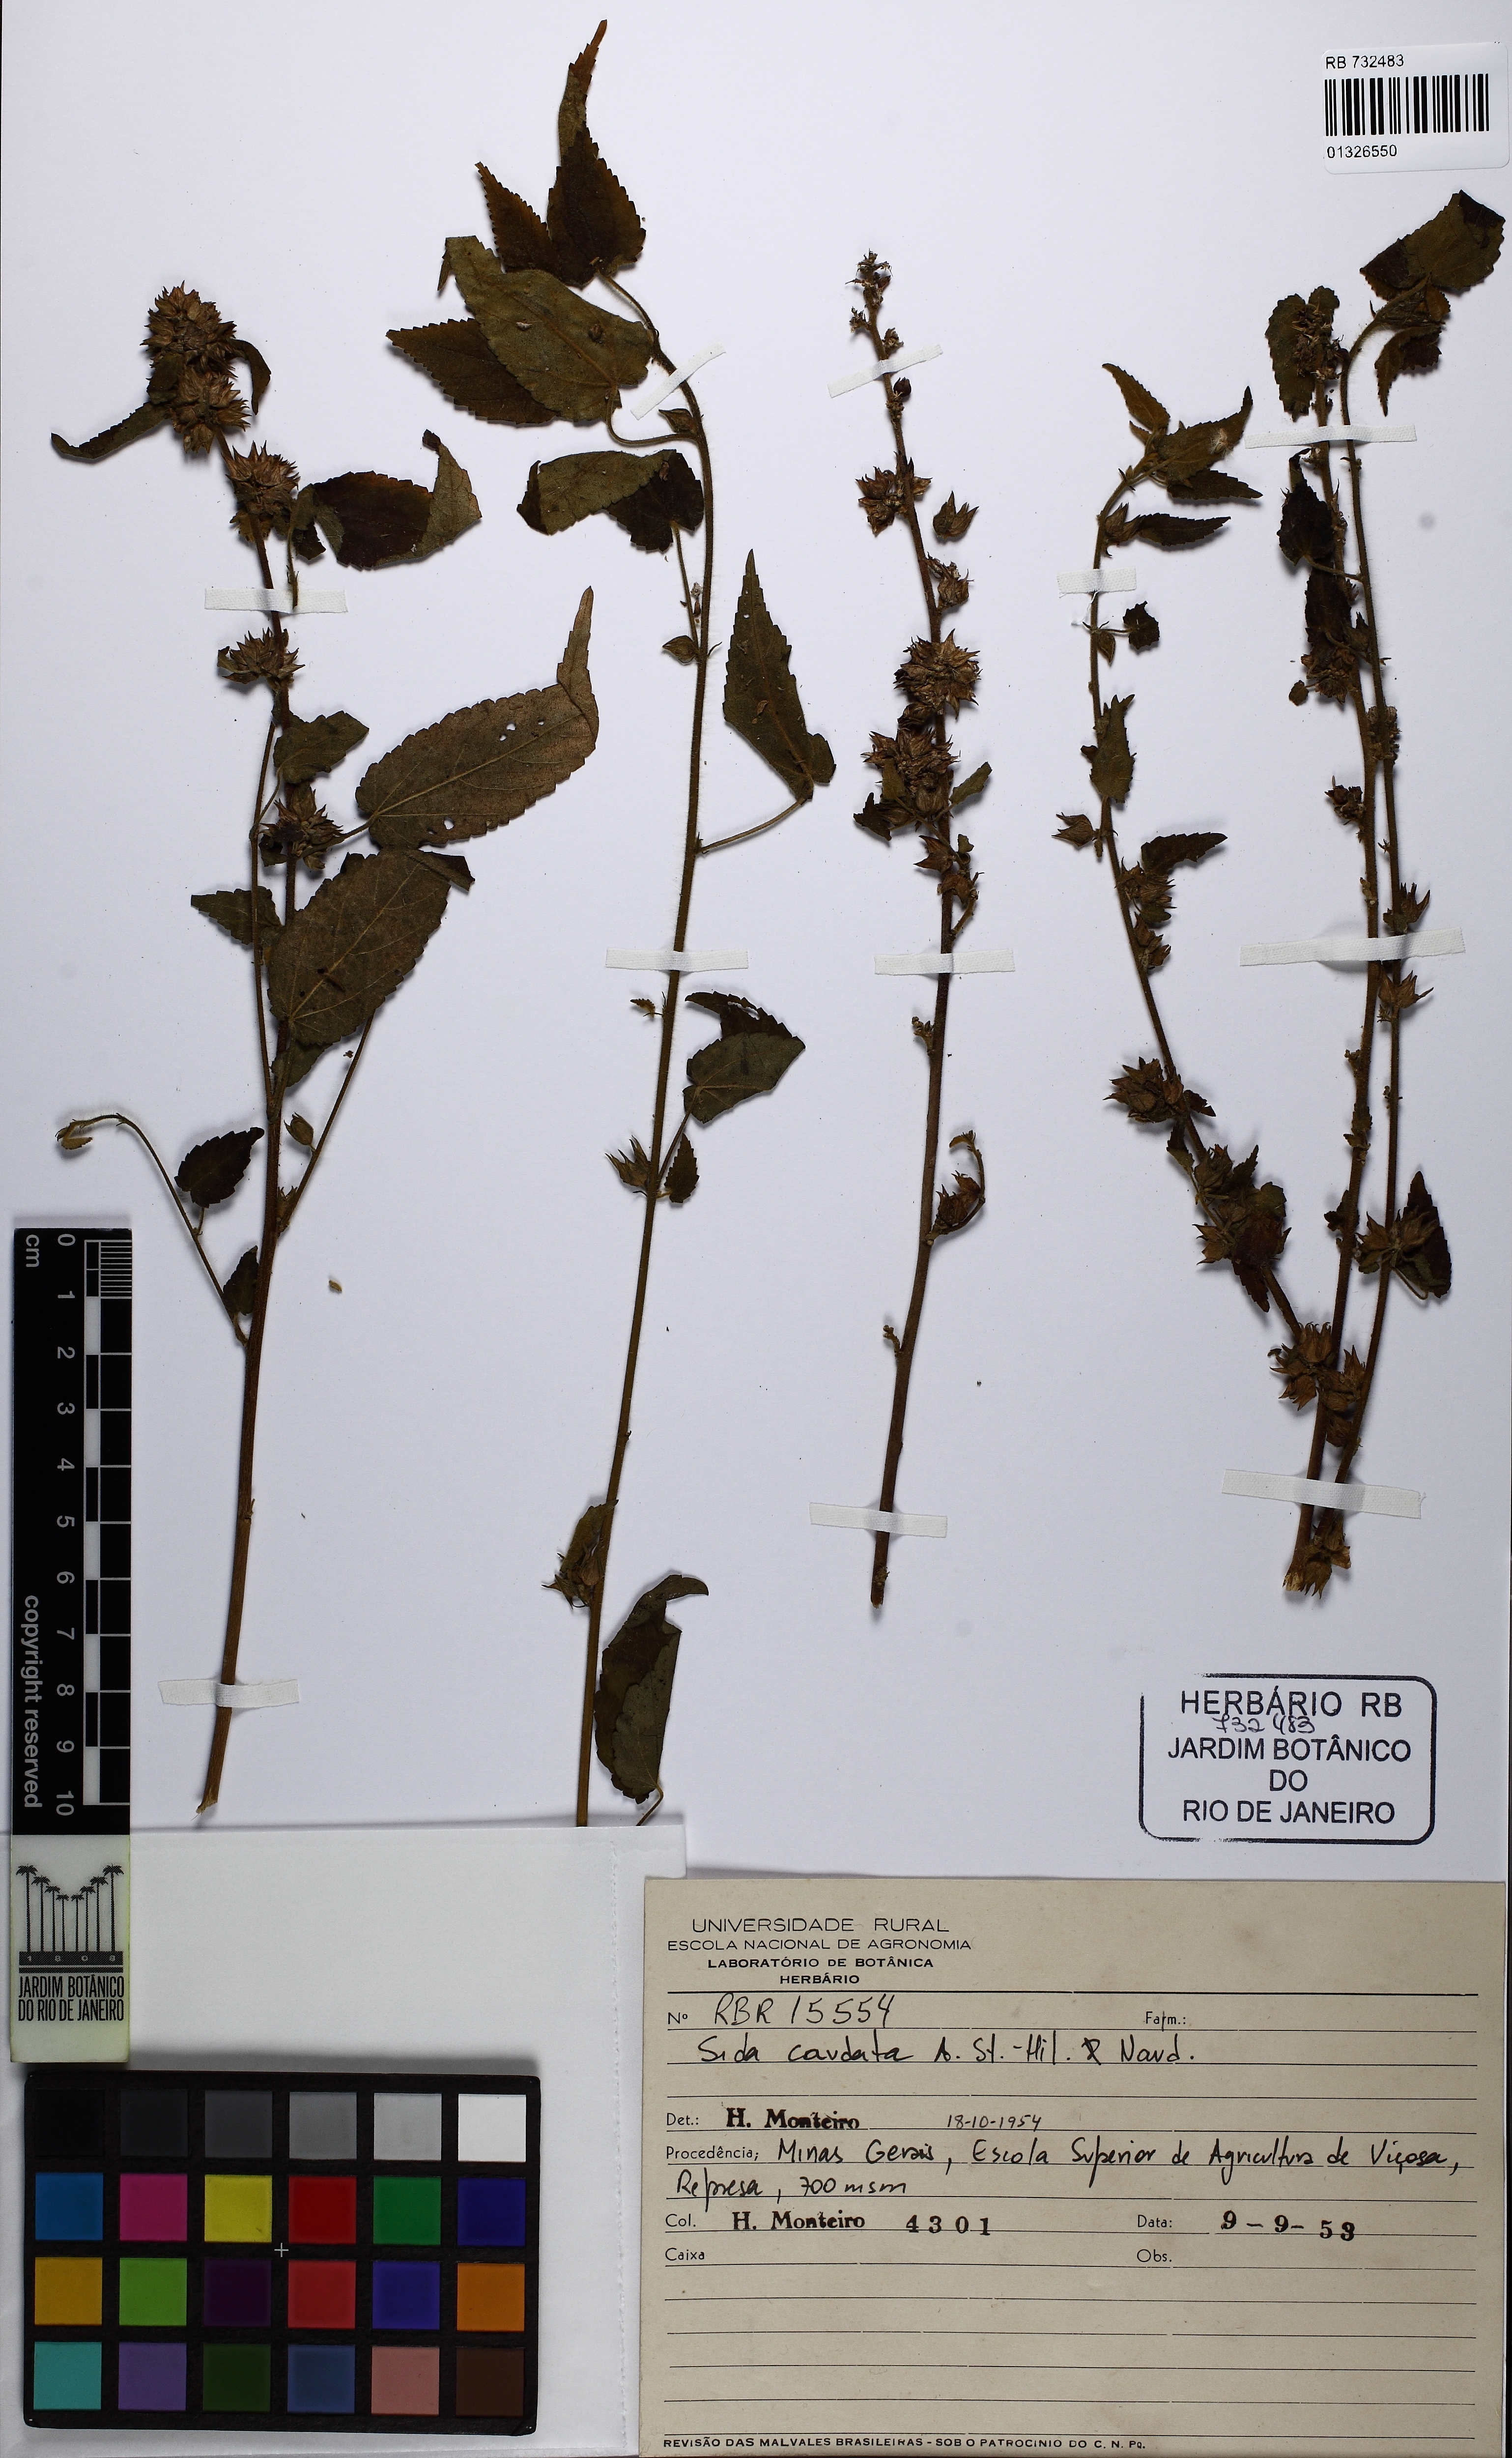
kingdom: Plantae
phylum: Tracheophyta
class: Magnoliopsida
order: Malvales
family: Malvaceae
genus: Sida
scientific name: Sida caudata
